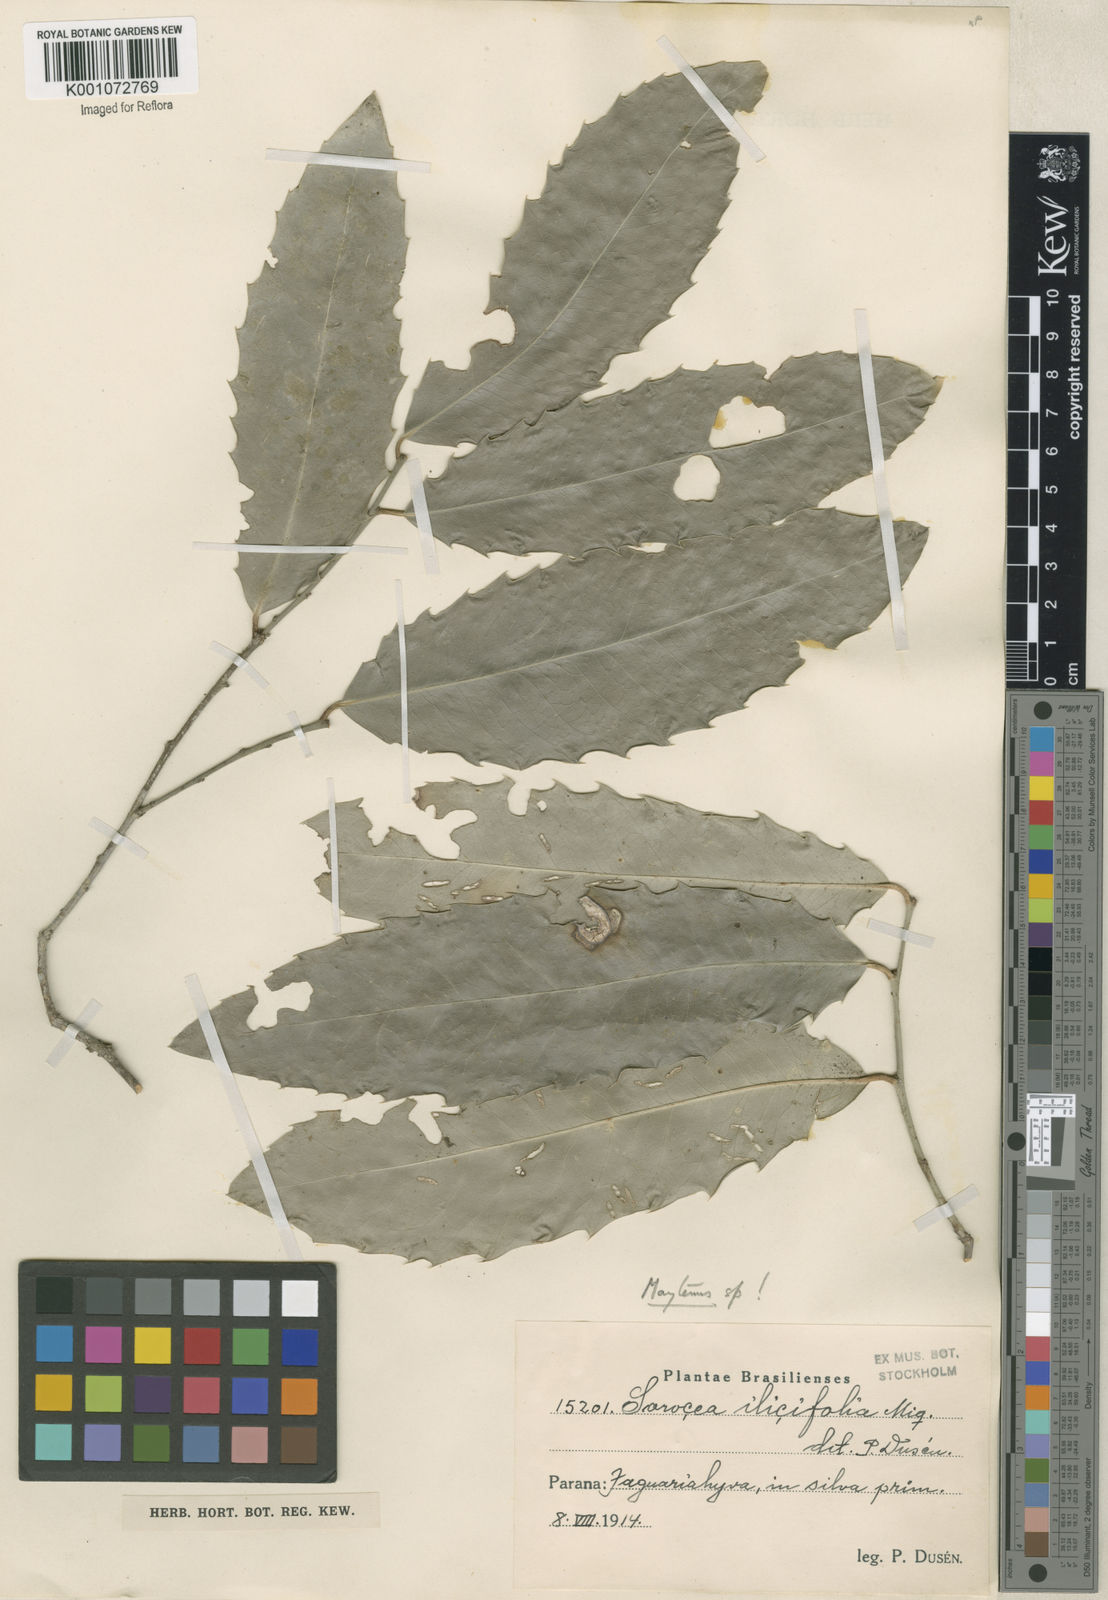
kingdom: Plantae
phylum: Tracheophyta
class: Magnoliopsida
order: Celastrales
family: Celastraceae
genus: Monteverdia
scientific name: Monteverdia ilicifolia
